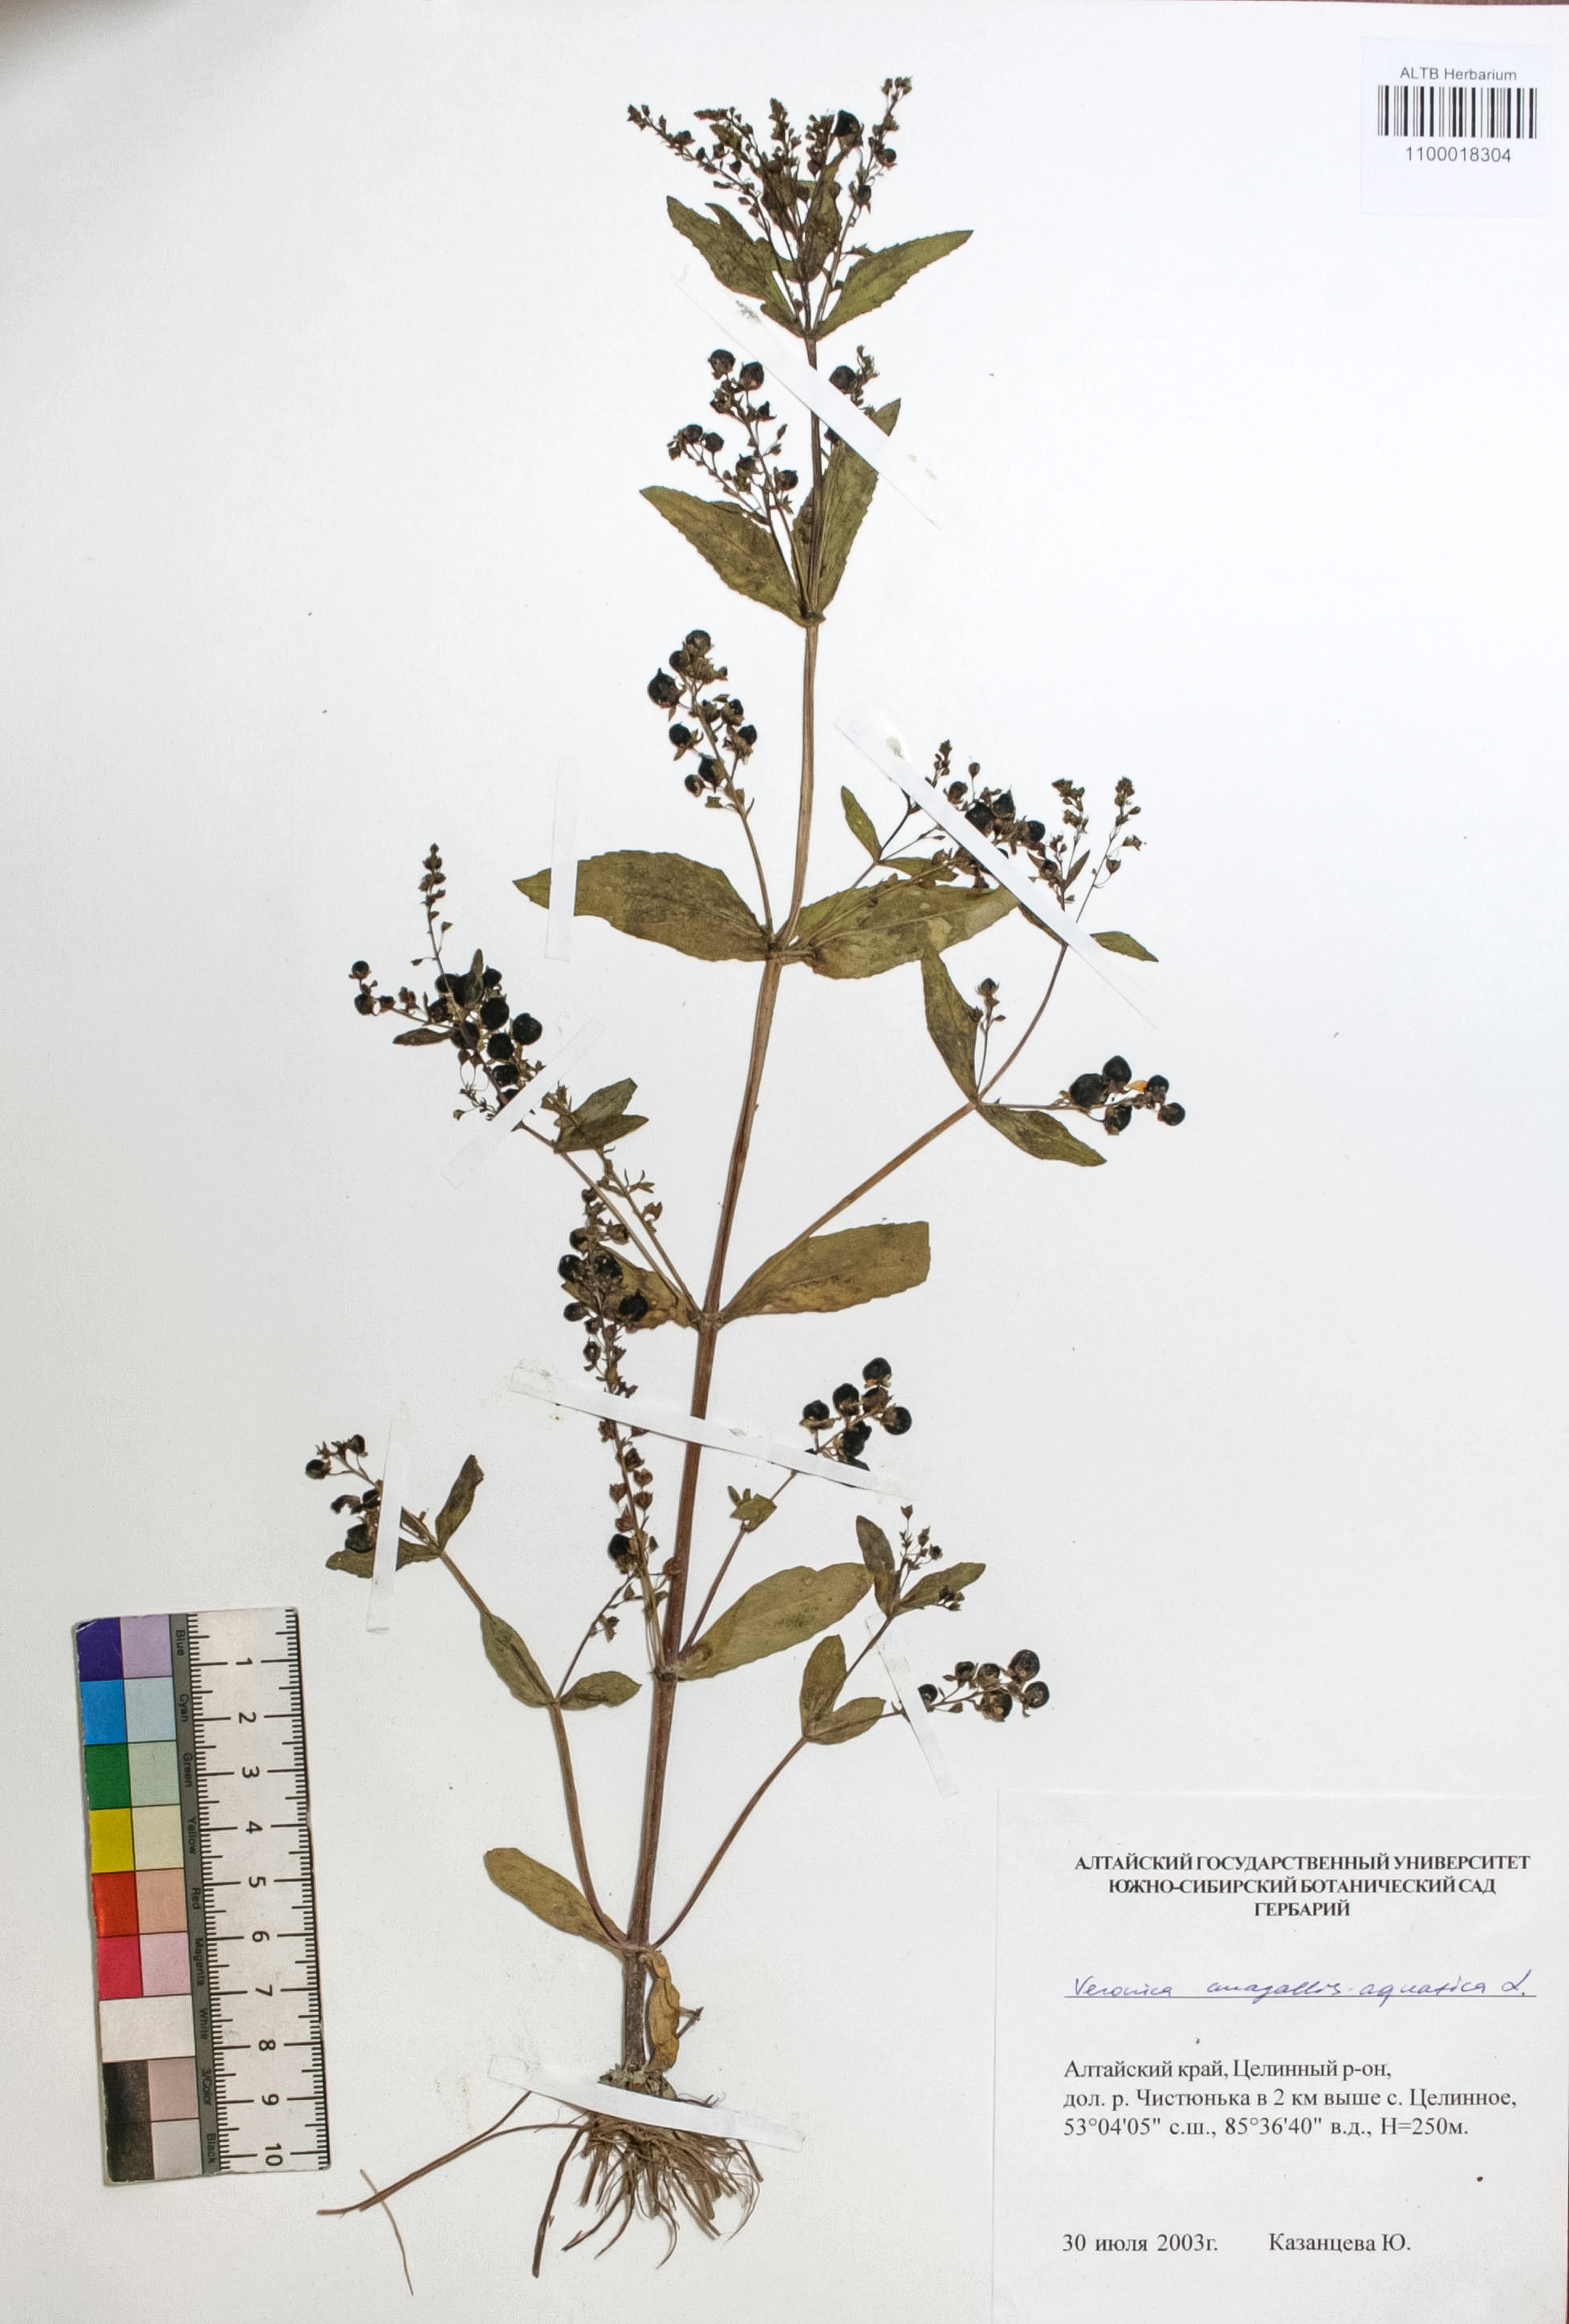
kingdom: Plantae
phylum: Tracheophyta
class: Magnoliopsida
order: Lamiales
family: Plantaginaceae
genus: Veronica
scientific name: Veronica anagallis-aquatica
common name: Water speedwell
